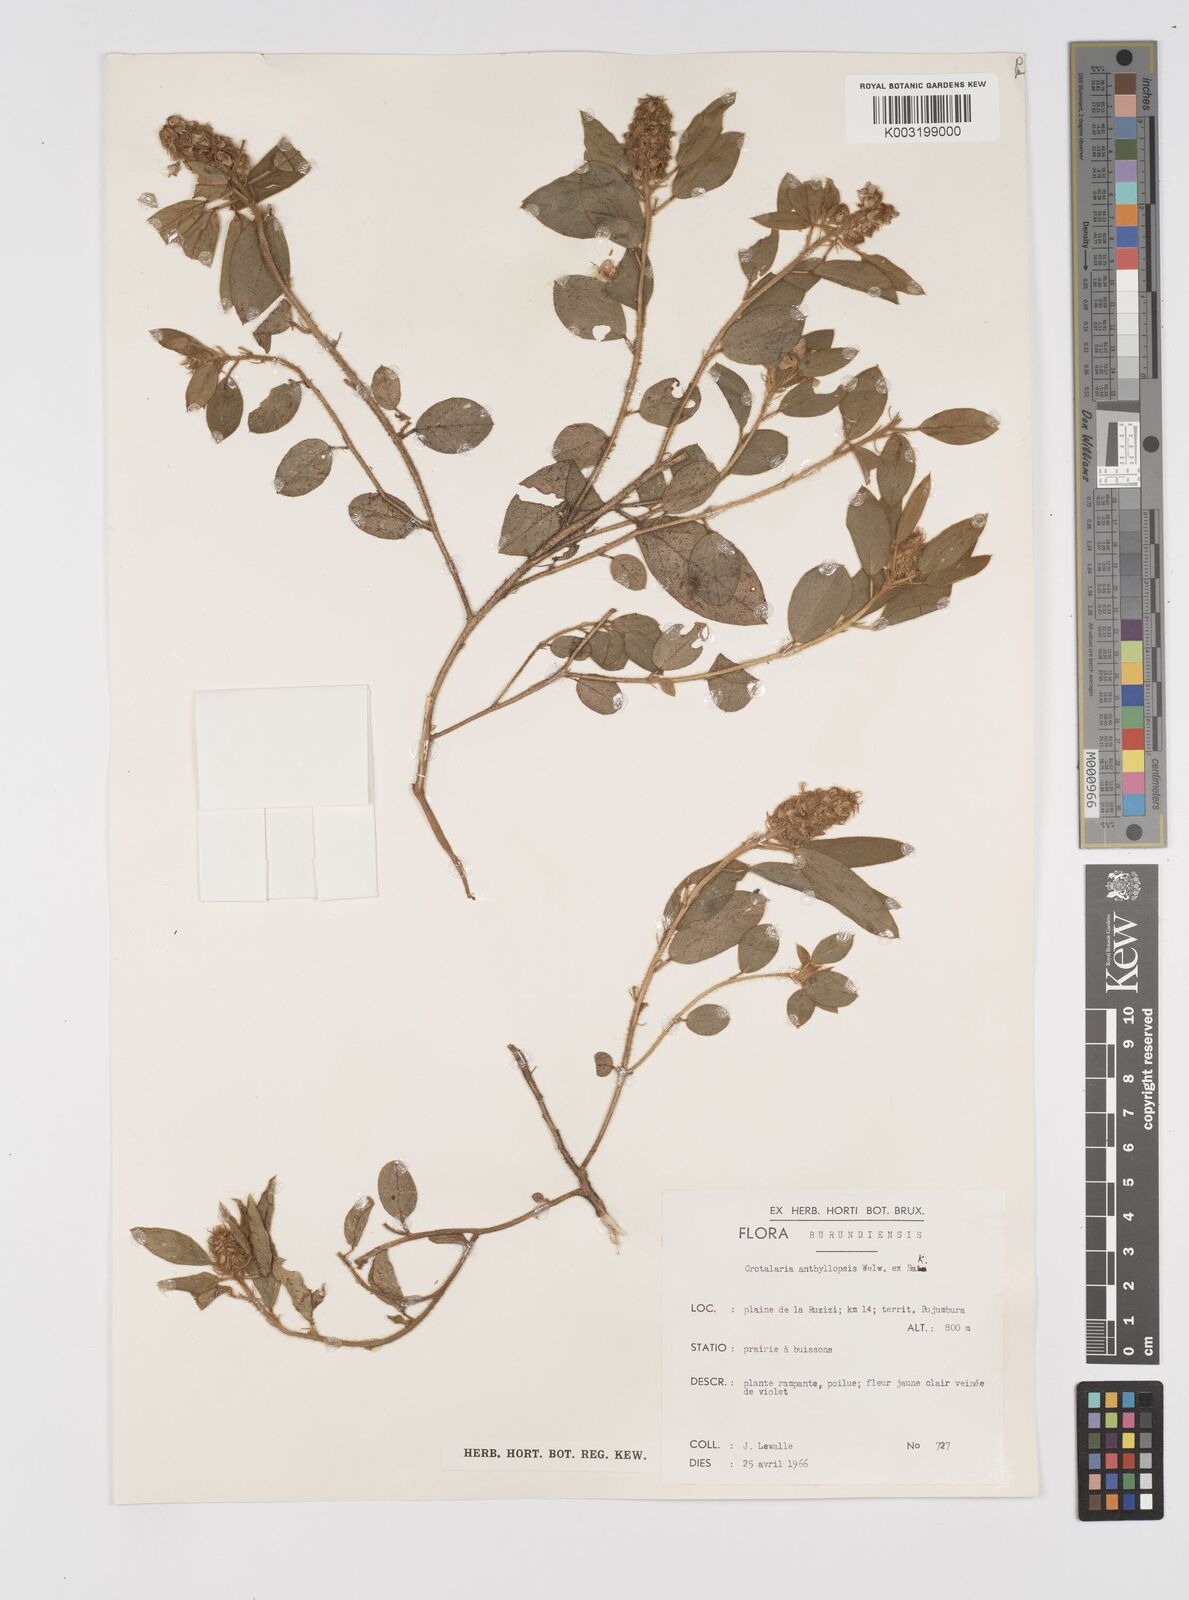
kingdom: Plantae
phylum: Tracheophyta
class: Magnoliopsida
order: Fabales
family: Fabaceae
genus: Crotalaria
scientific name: Crotalaria anthyllopsis
